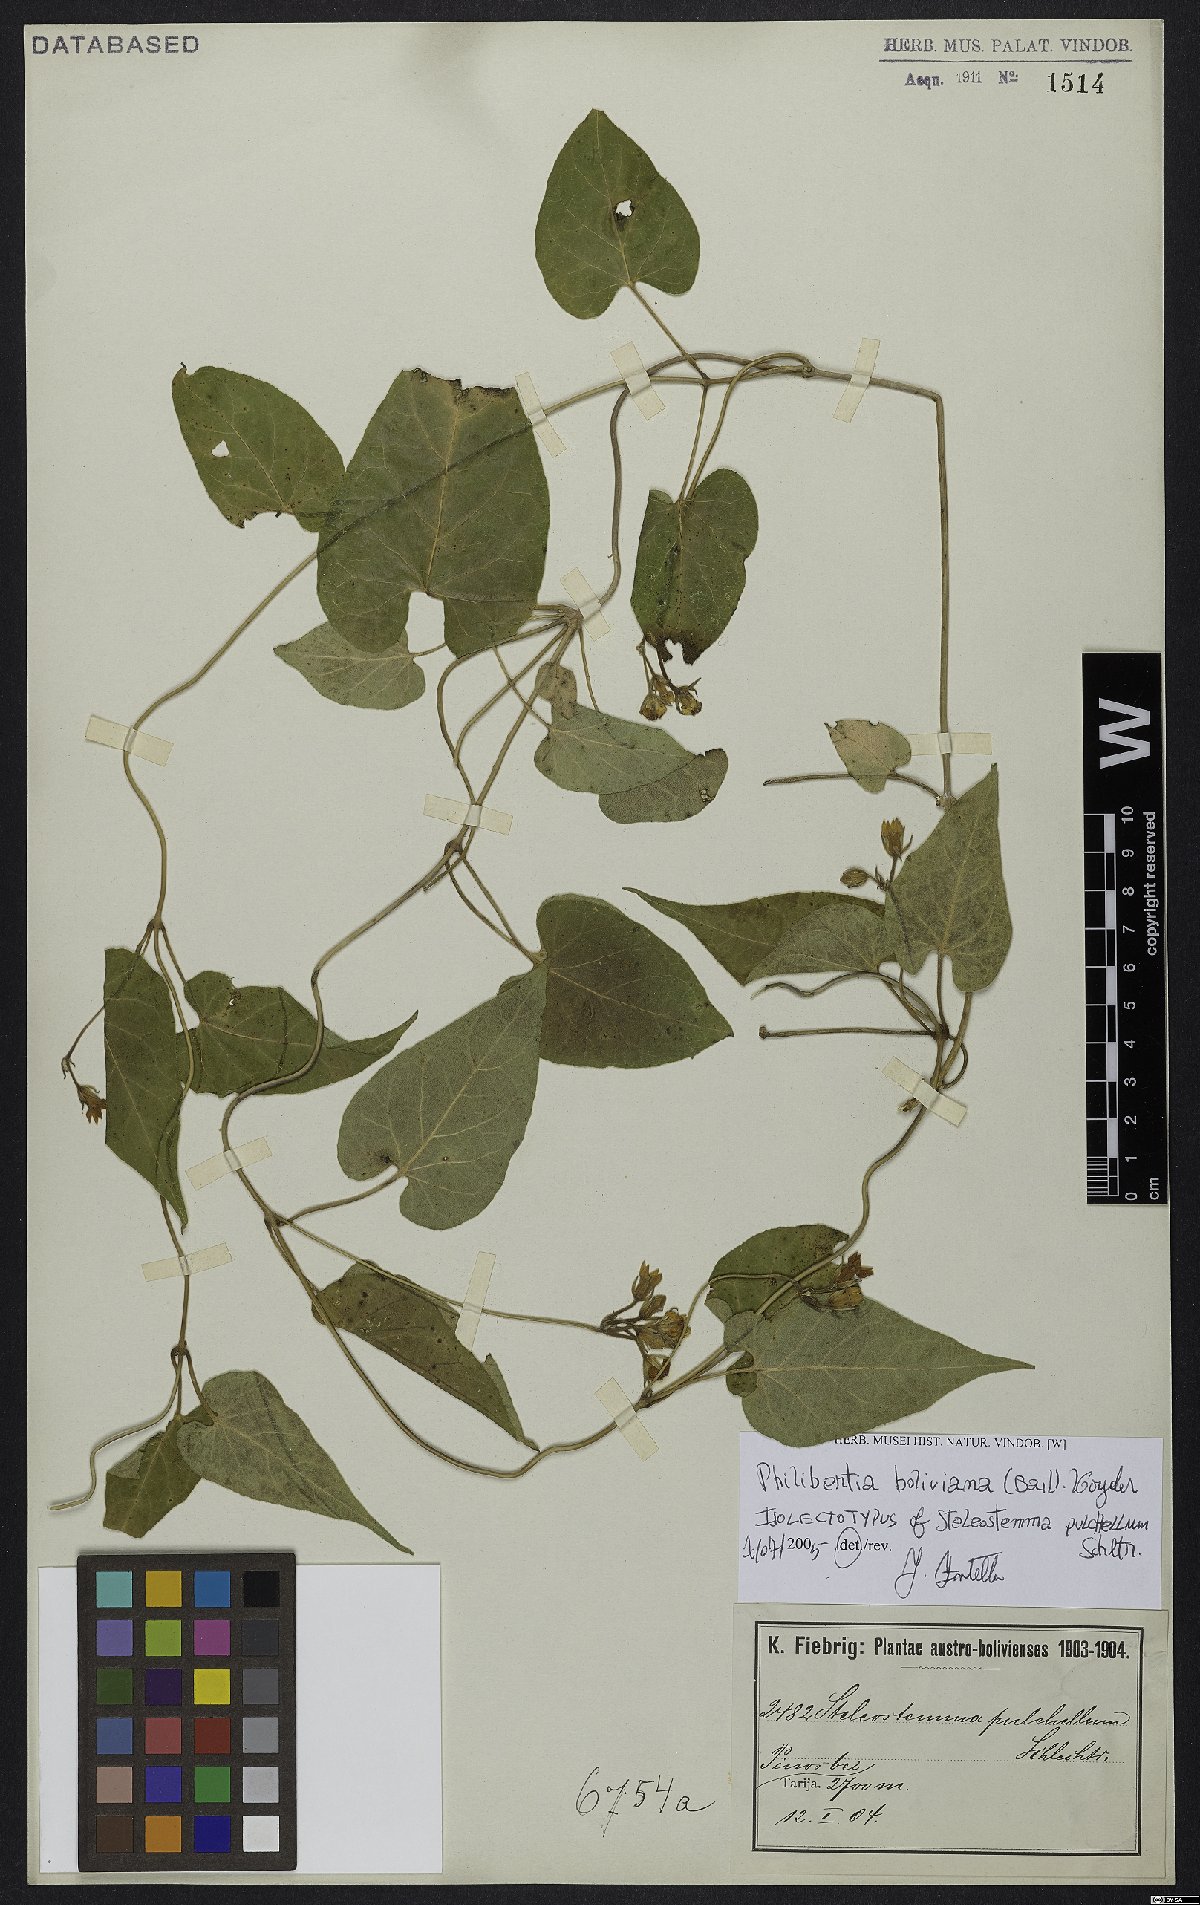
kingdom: Plantae
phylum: Tracheophyta
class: Magnoliopsida
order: Gentianales
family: Apocynaceae
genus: Philibertia
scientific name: Philibertia boliviana
